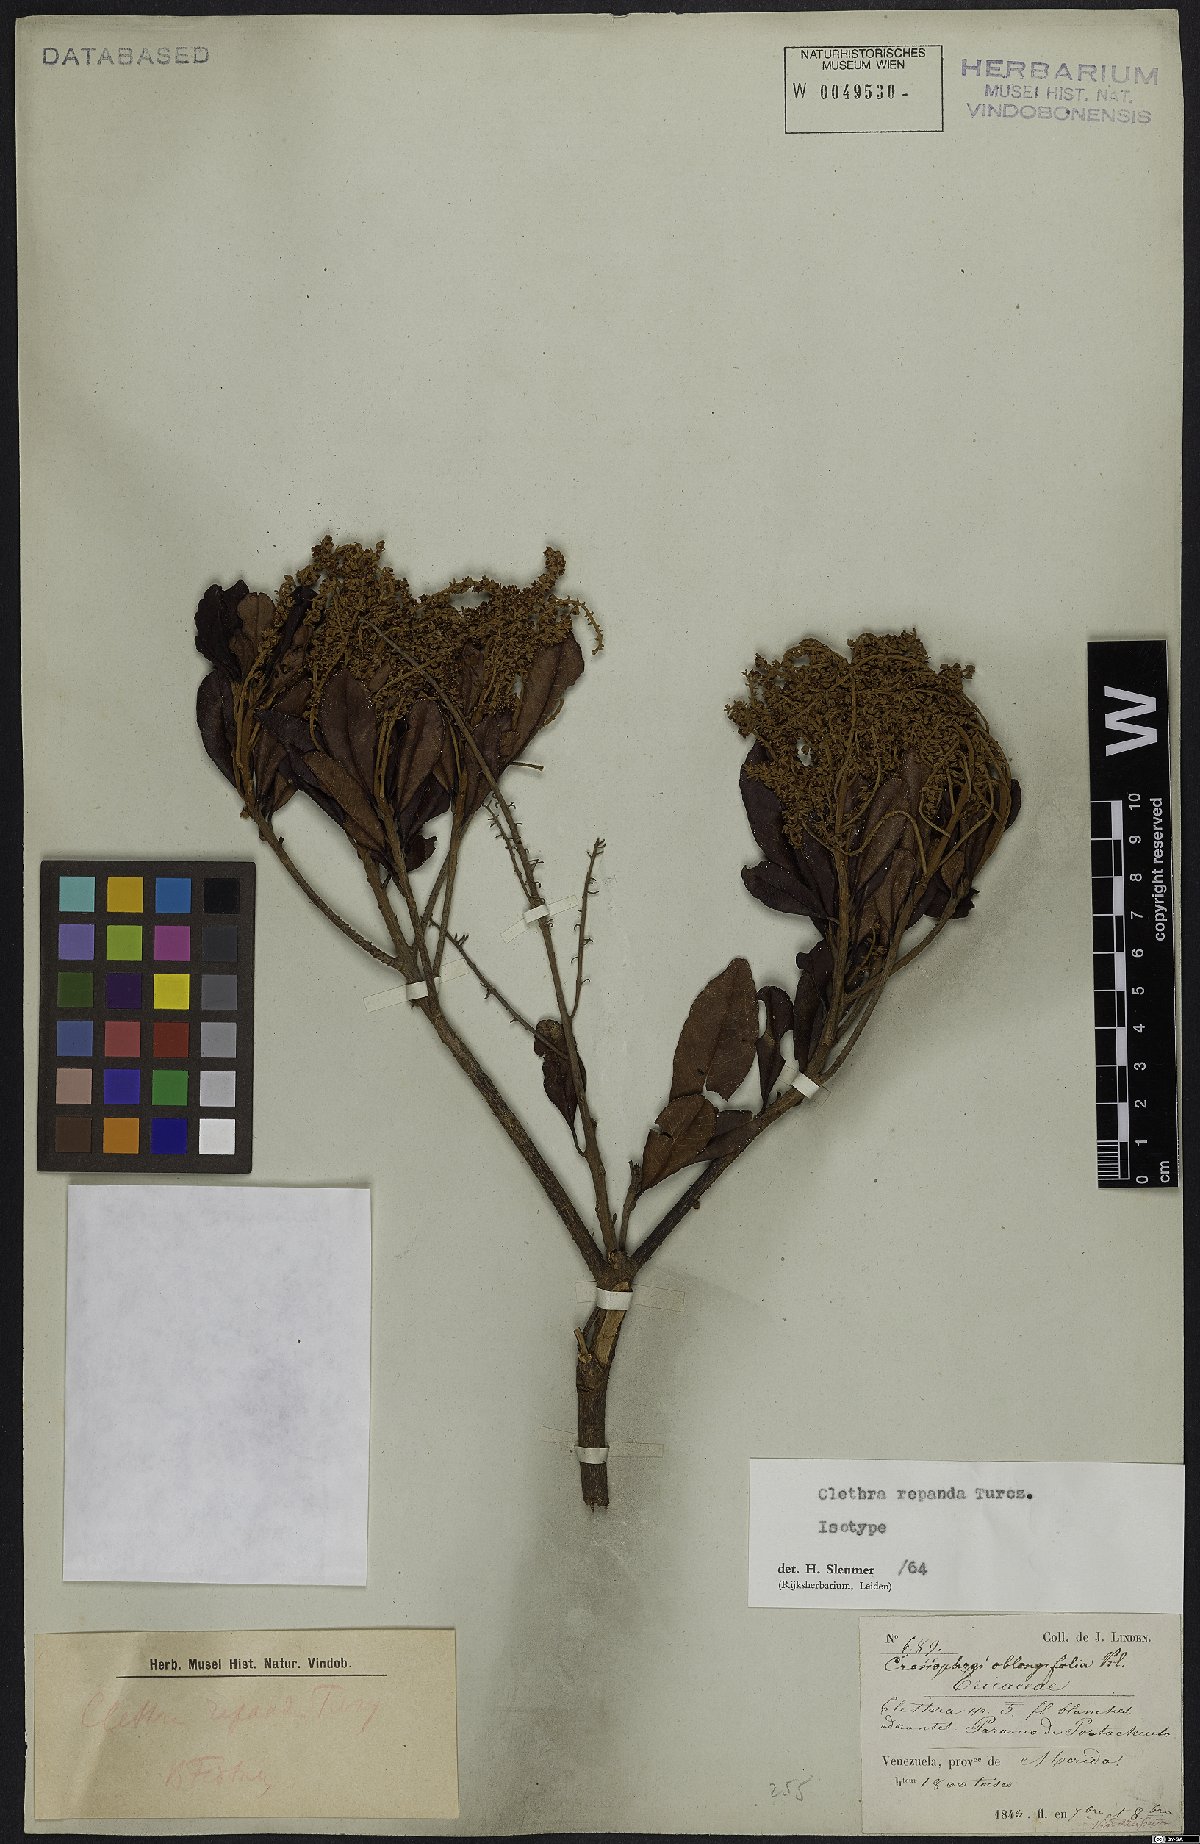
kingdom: Plantae
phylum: Tracheophyta
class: Magnoliopsida
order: Ericales
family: Clethraceae
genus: Clethra
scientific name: Clethra repanda
